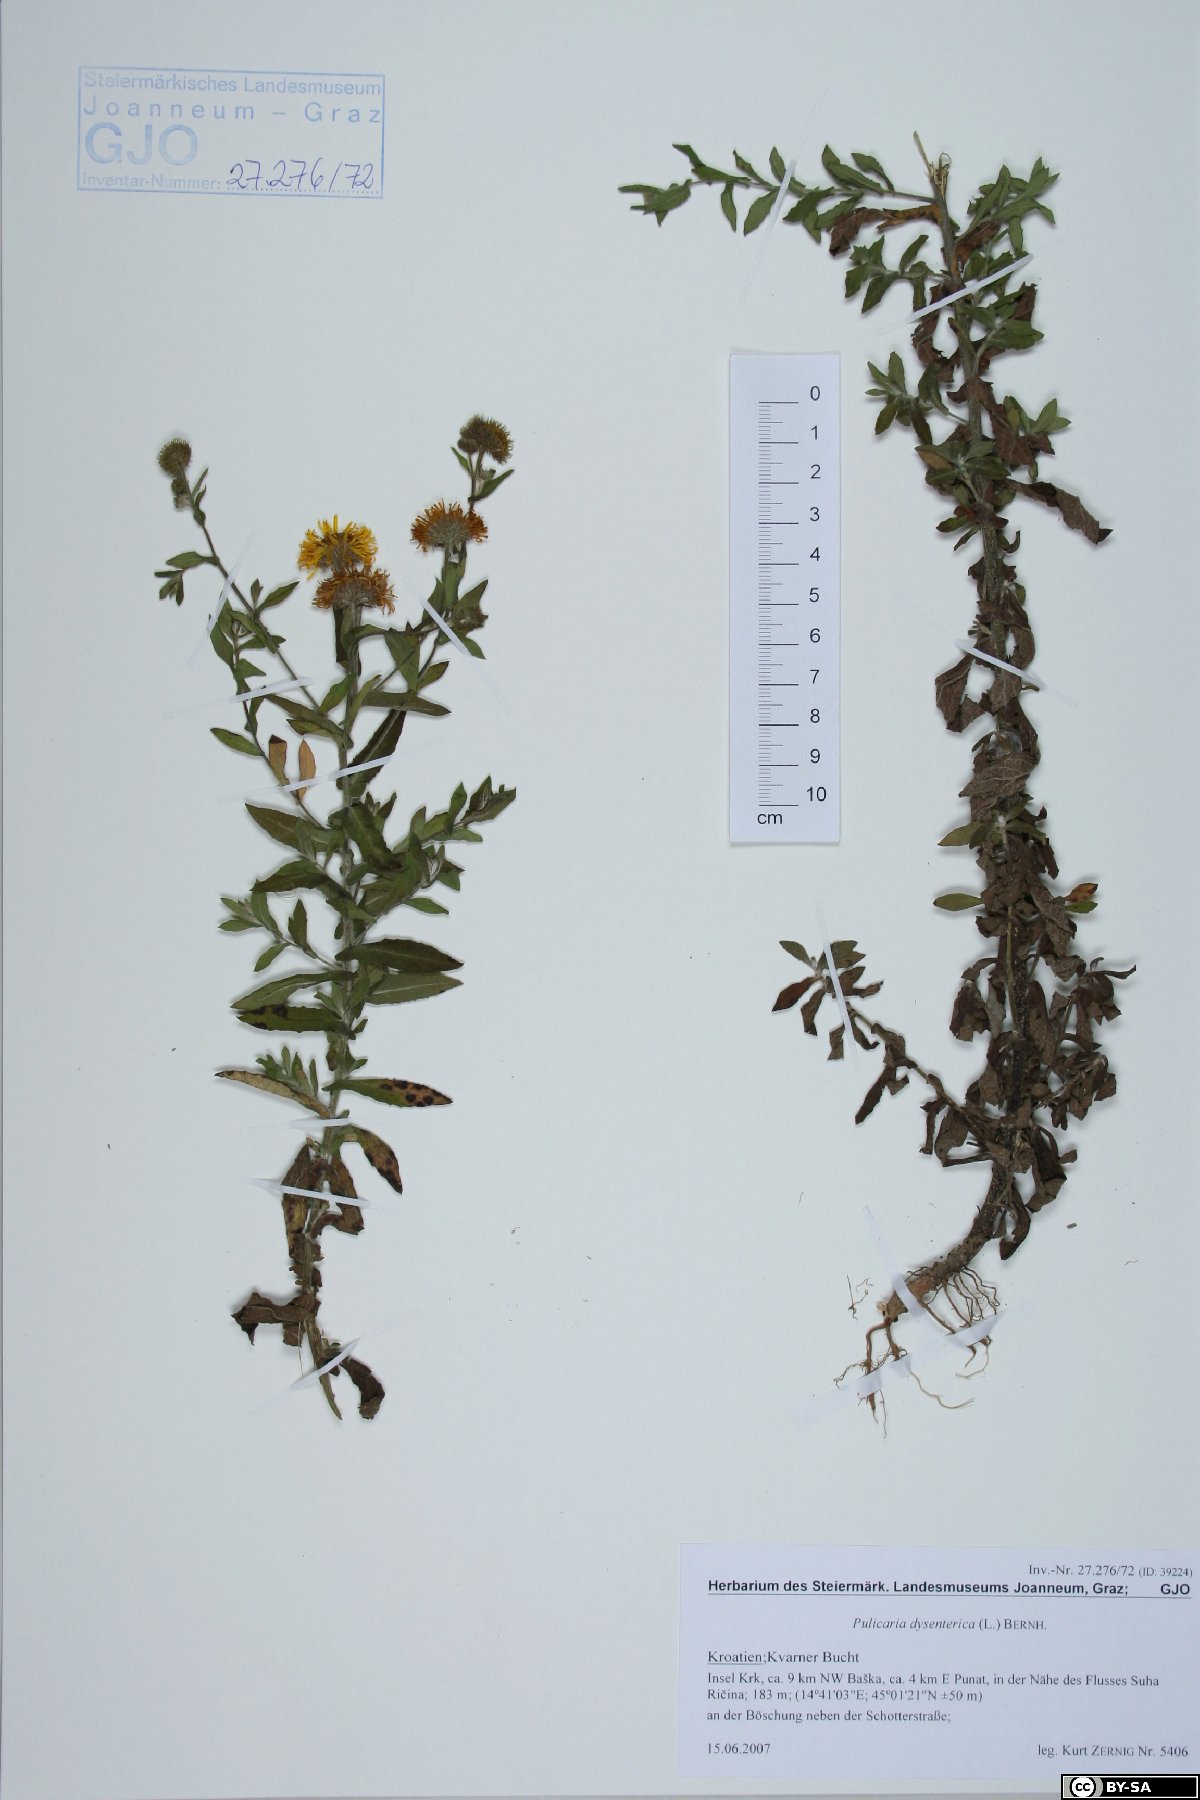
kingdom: Plantae
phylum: Tracheophyta
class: Magnoliopsida
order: Asterales
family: Asteraceae
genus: Pulicaria
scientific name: Pulicaria dysenterica
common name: Common fleabane
